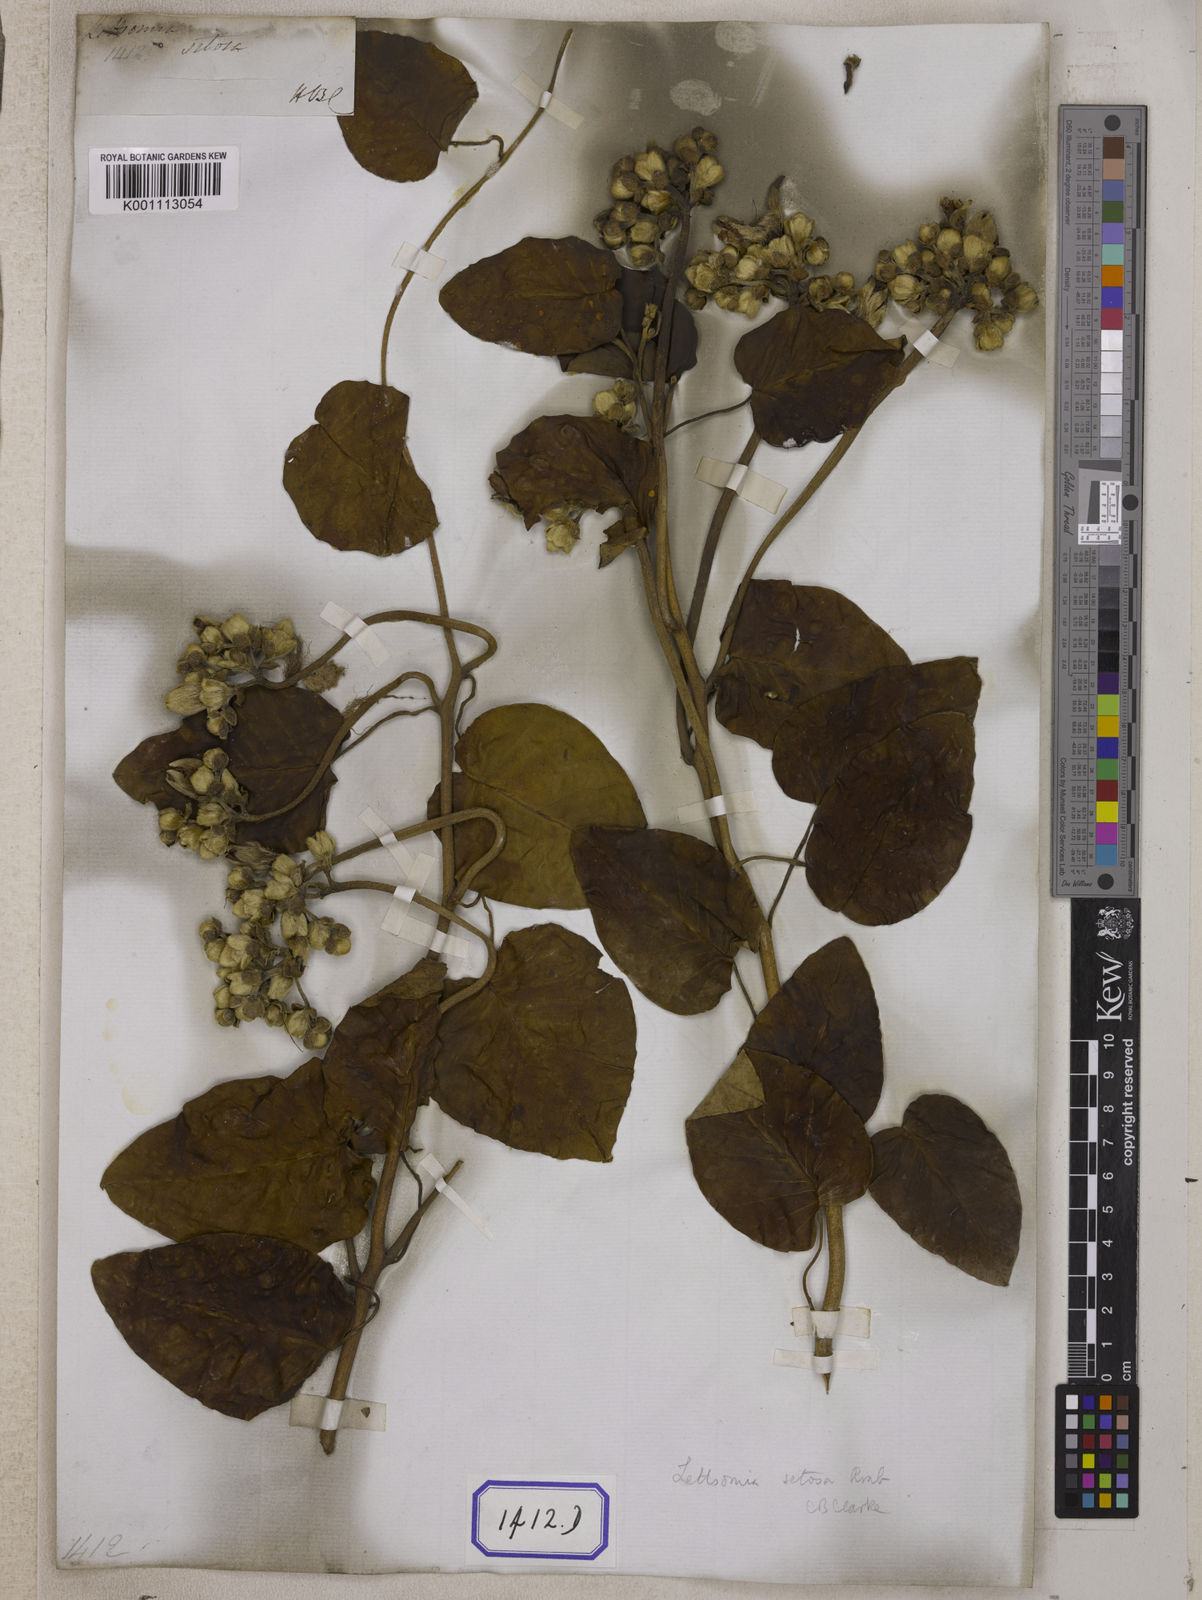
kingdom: Plantae
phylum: Tracheophyta
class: Magnoliopsida
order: Solanales
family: Convolvulaceae
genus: Convolvulus
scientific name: Convolvulus
